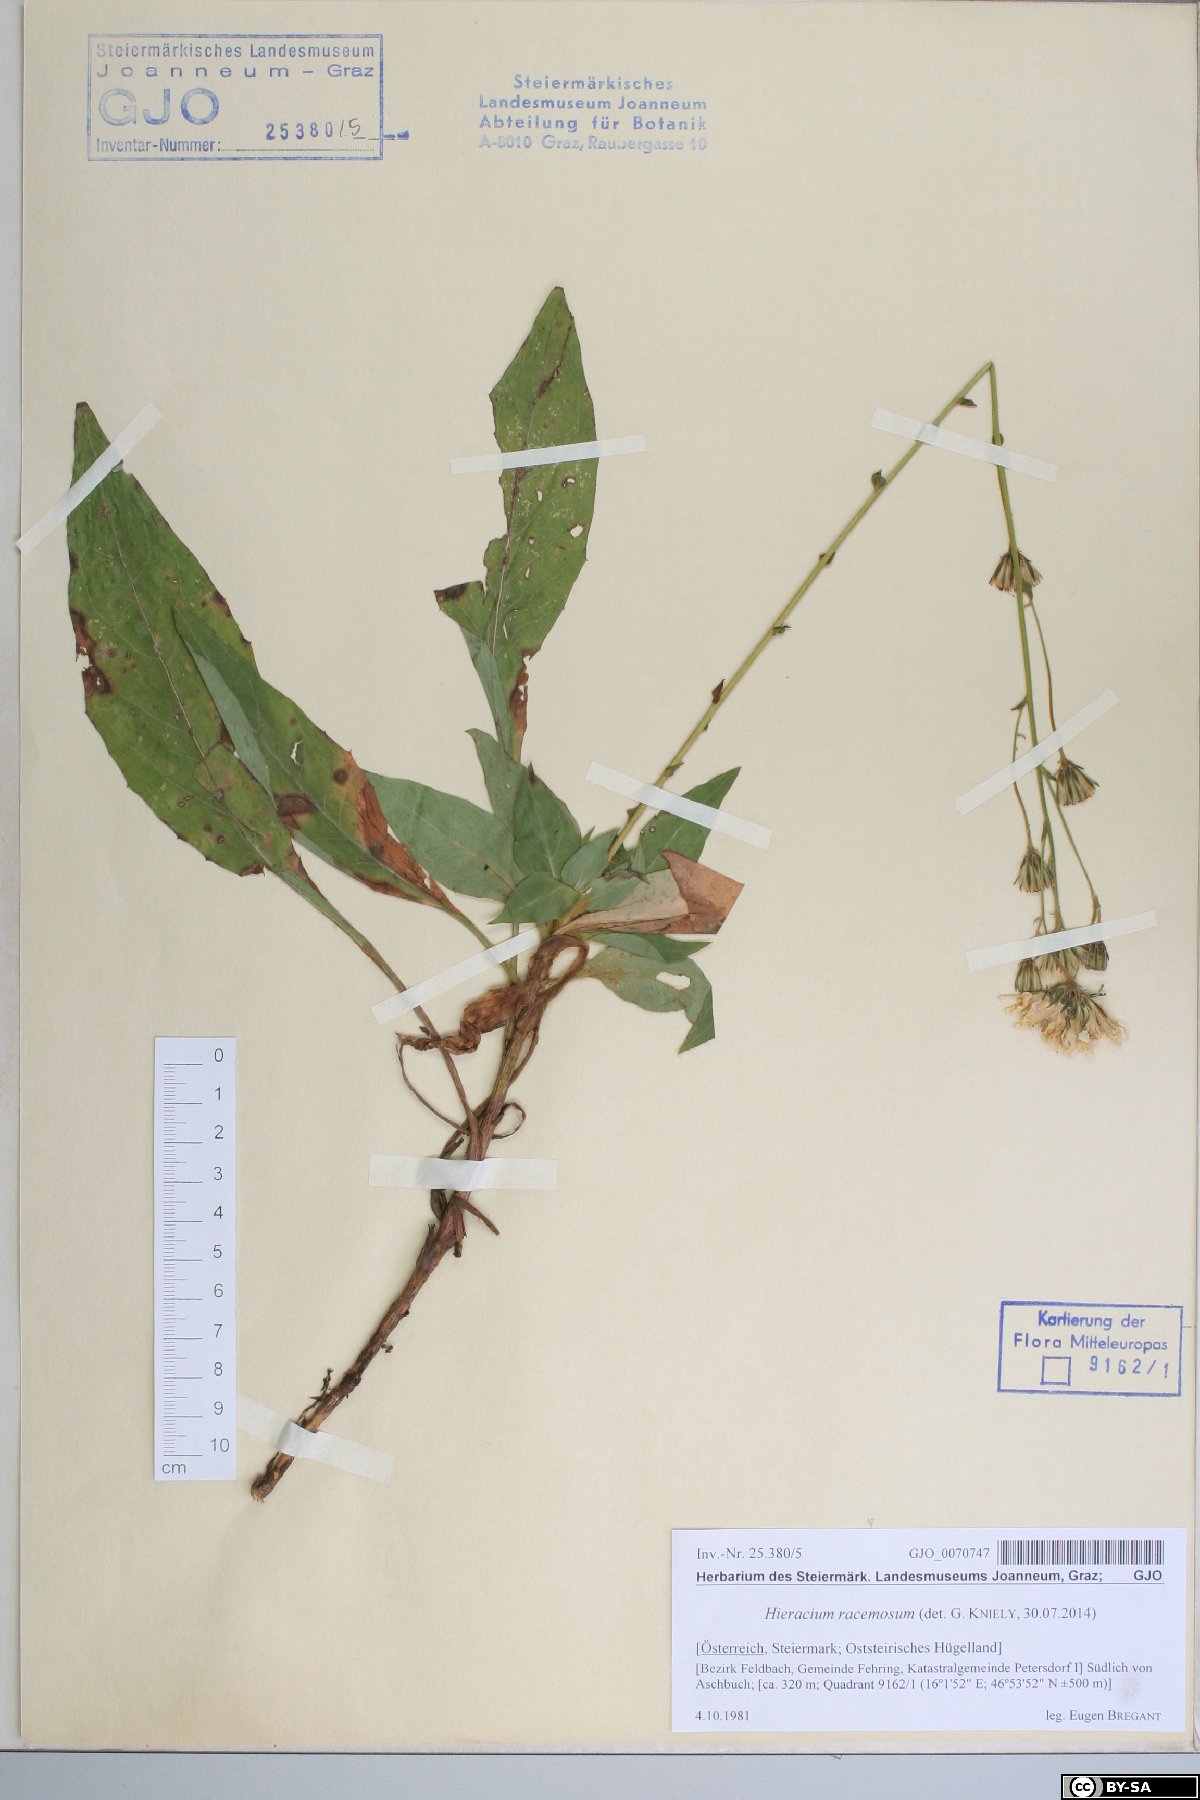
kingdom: Plantae
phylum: Tracheophyta
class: Magnoliopsida
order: Asterales
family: Asteraceae
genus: Hieracium
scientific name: Hieracium racemosum
